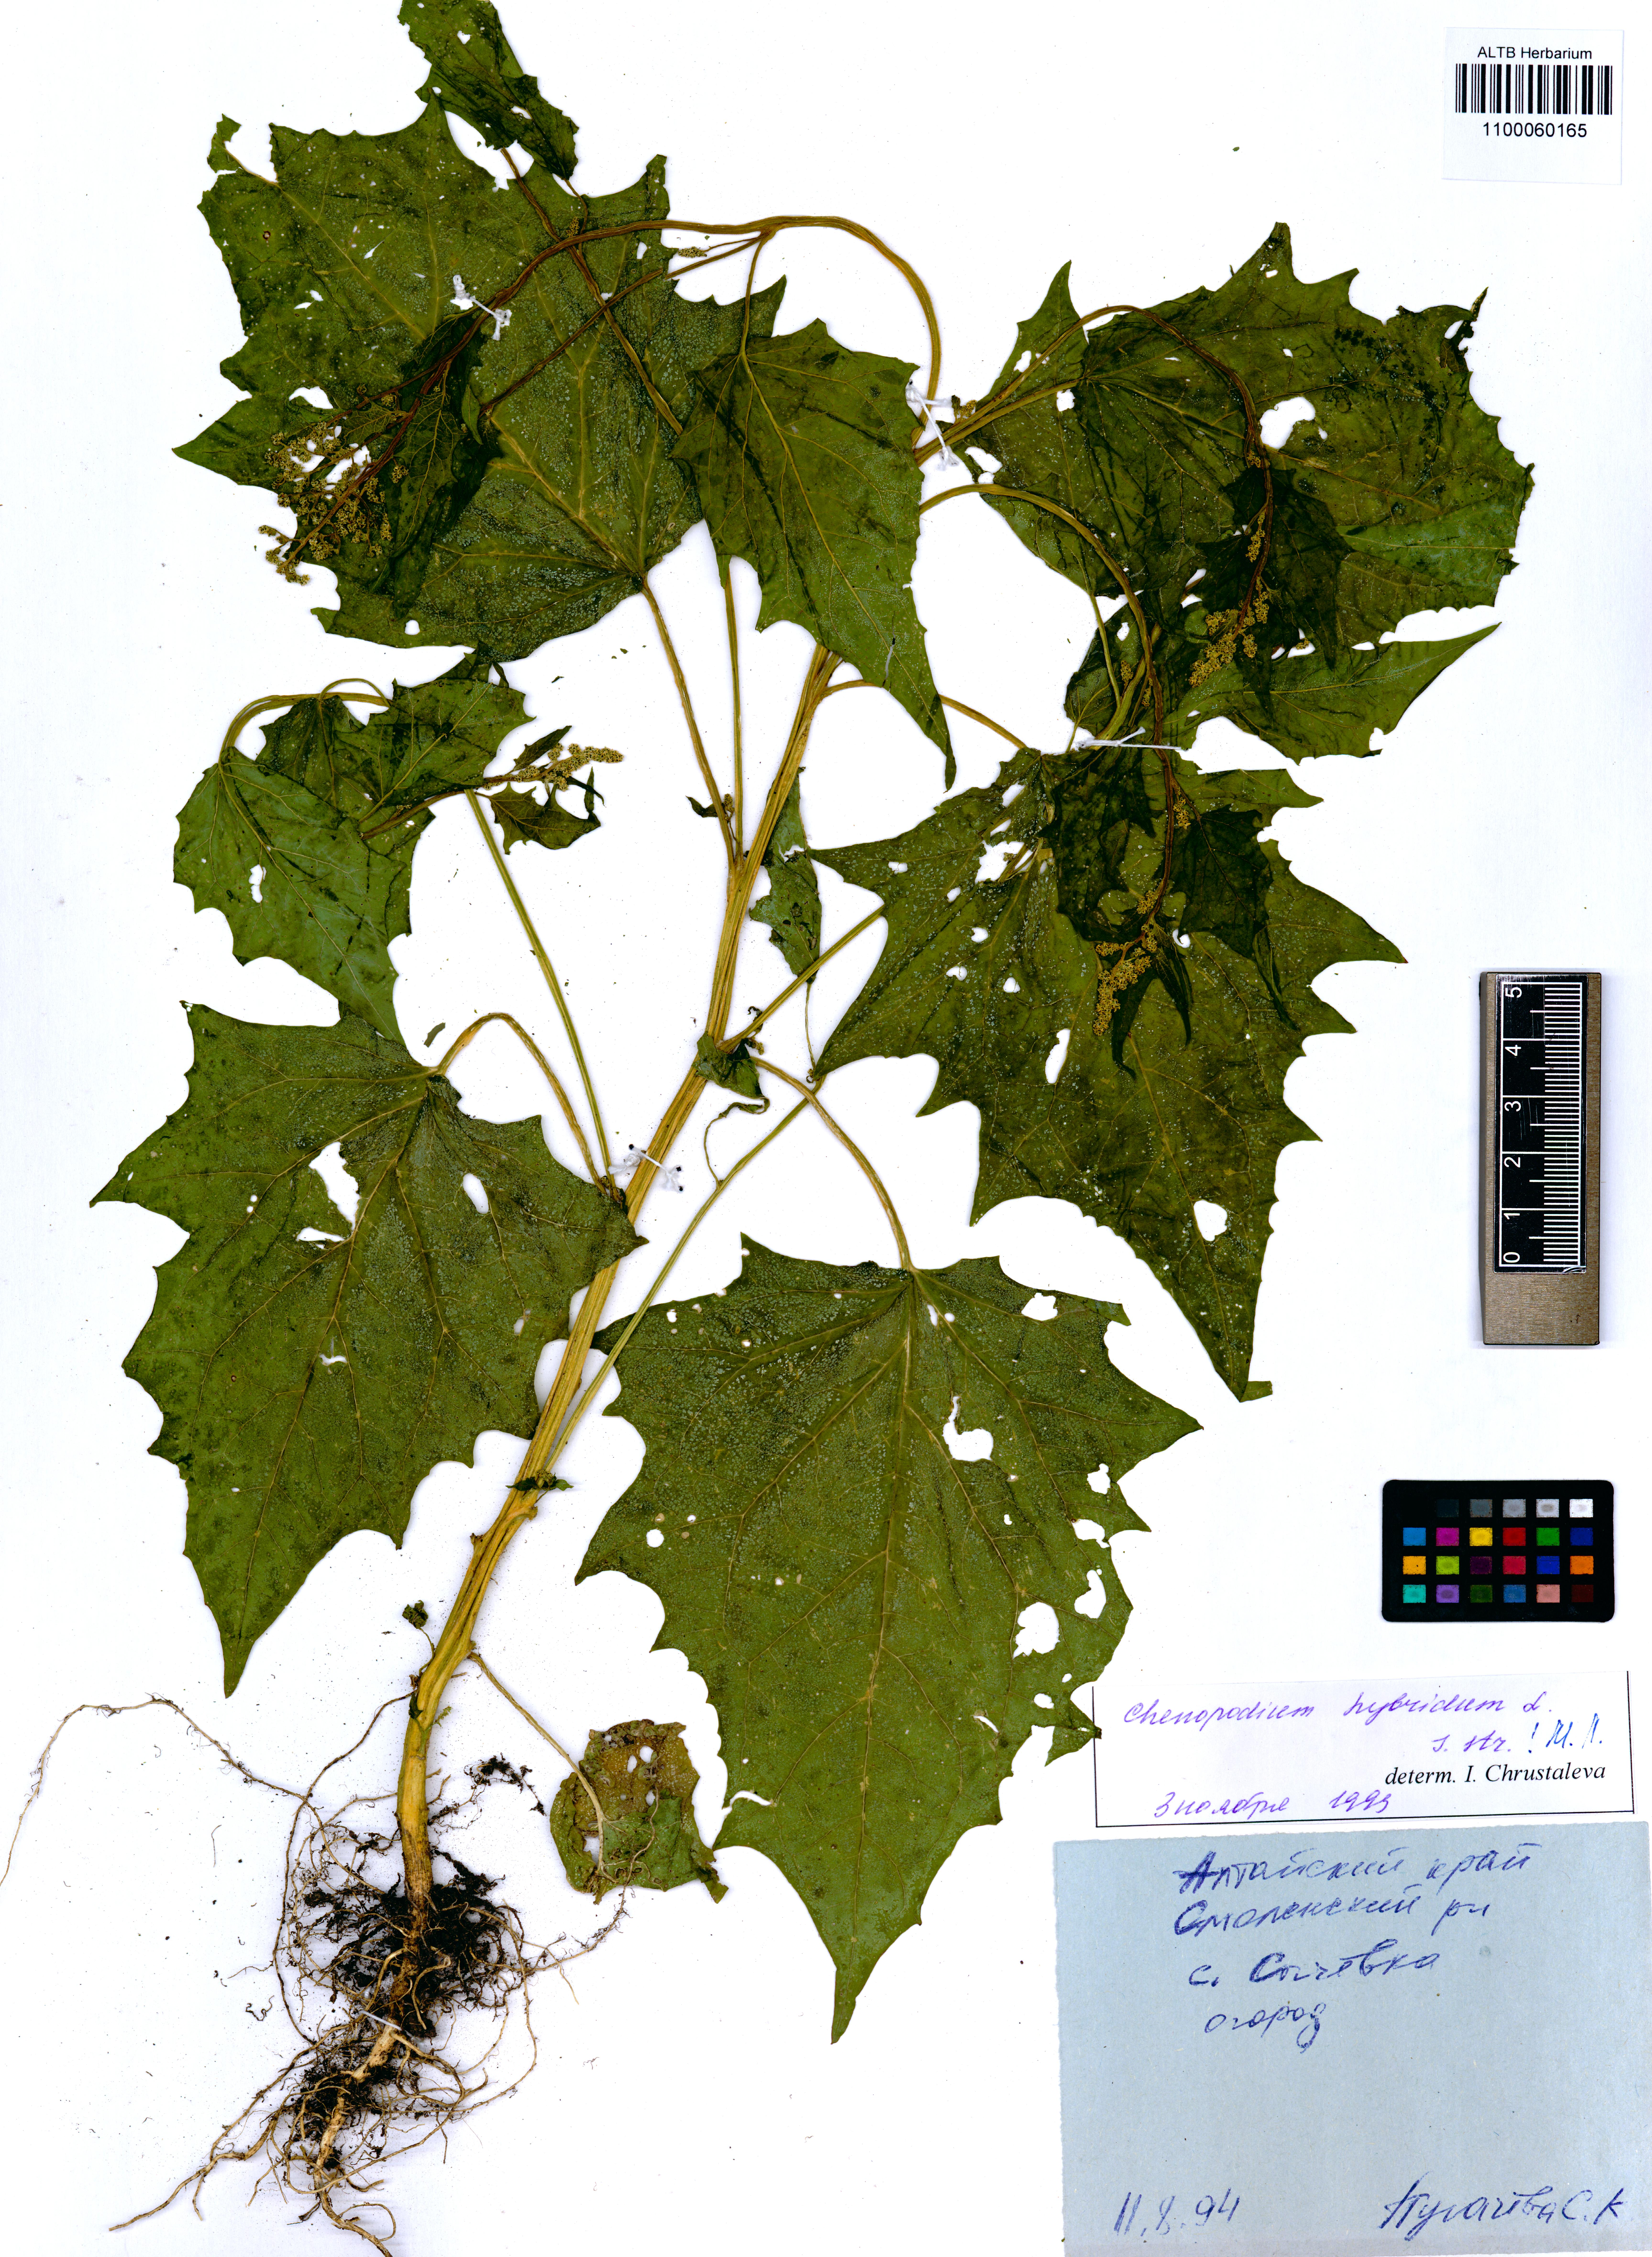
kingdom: Plantae
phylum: Tracheophyta
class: Magnoliopsida
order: Caryophyllales
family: Amaranthaceae
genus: Chenopodiastrum
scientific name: Chenopodiastrum hybridum
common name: Mapleleaf goosefoot
